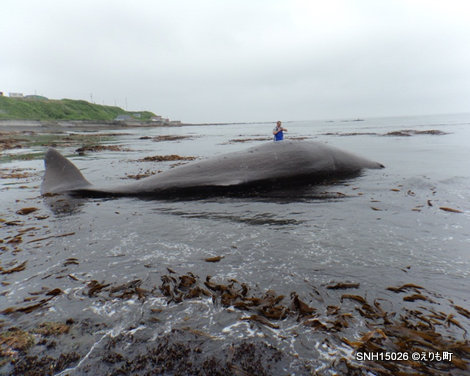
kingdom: Animalia
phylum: Chordata
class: Mammalia
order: Cetacea
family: Physeteridae
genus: Physeter
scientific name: Physeter macrocephalus
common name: Sperm whale
